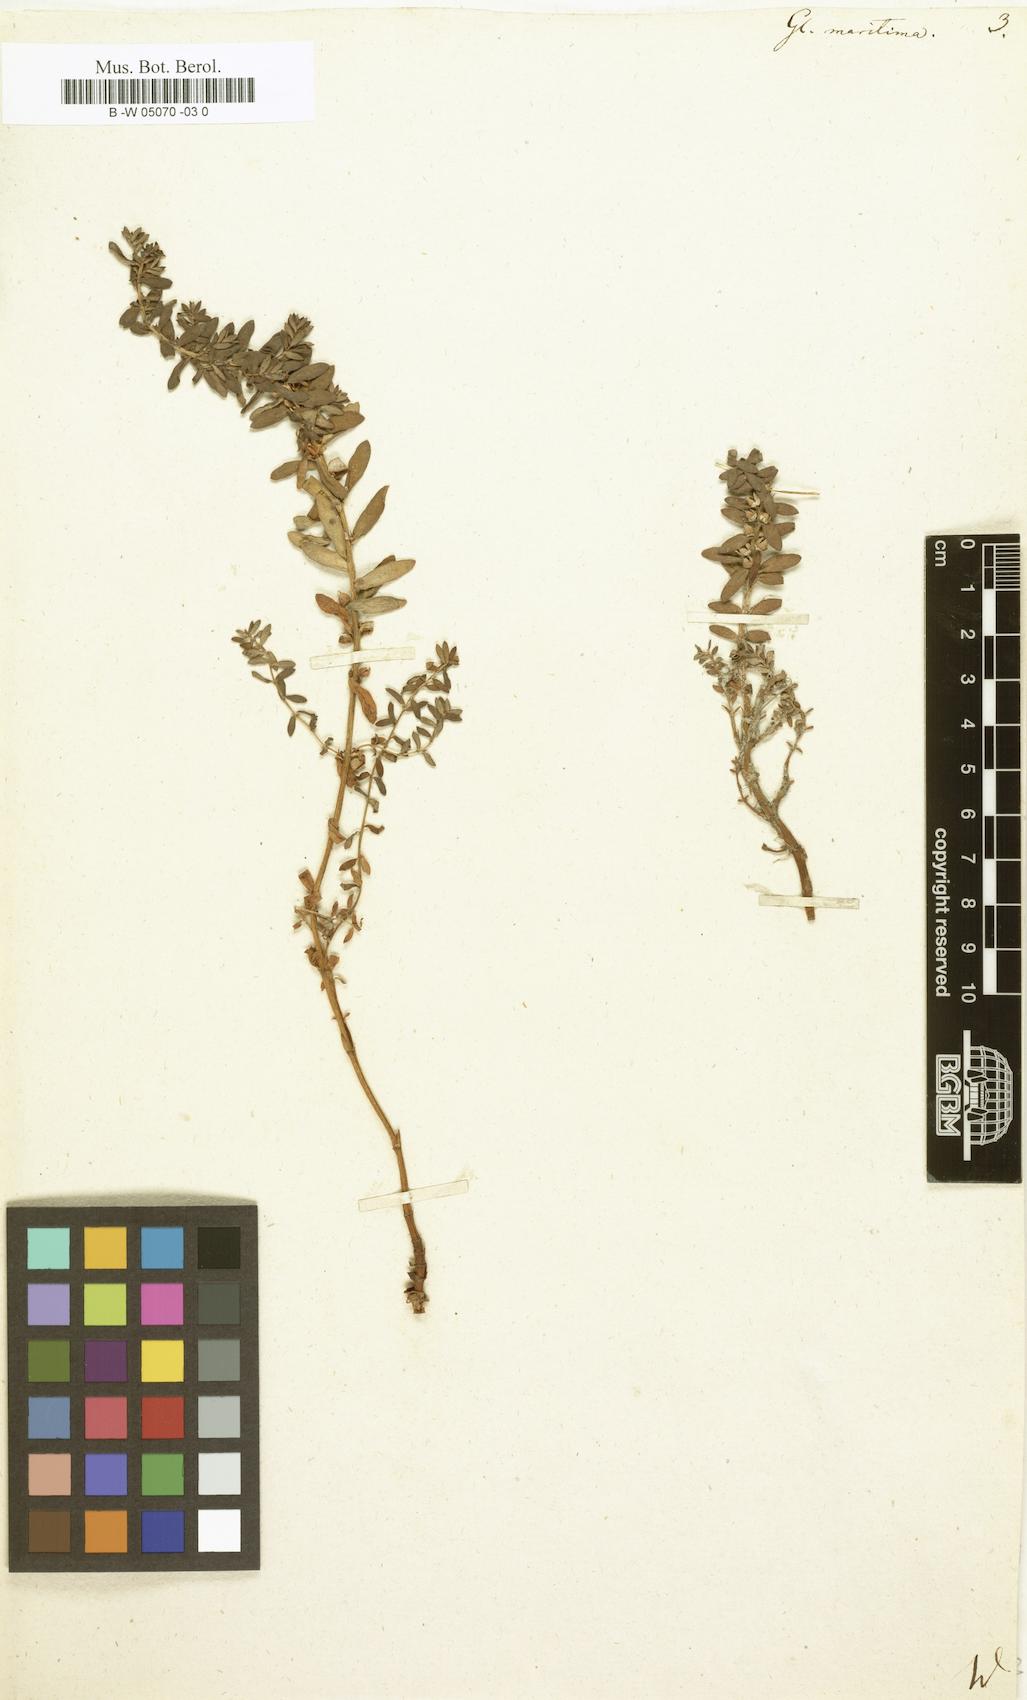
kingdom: Plantae
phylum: Tracheophyta
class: Magnoliopsida
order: Ericales
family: Primulaceae
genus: Lysimachia
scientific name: Lysimachia maritima
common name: Sea milkwort
